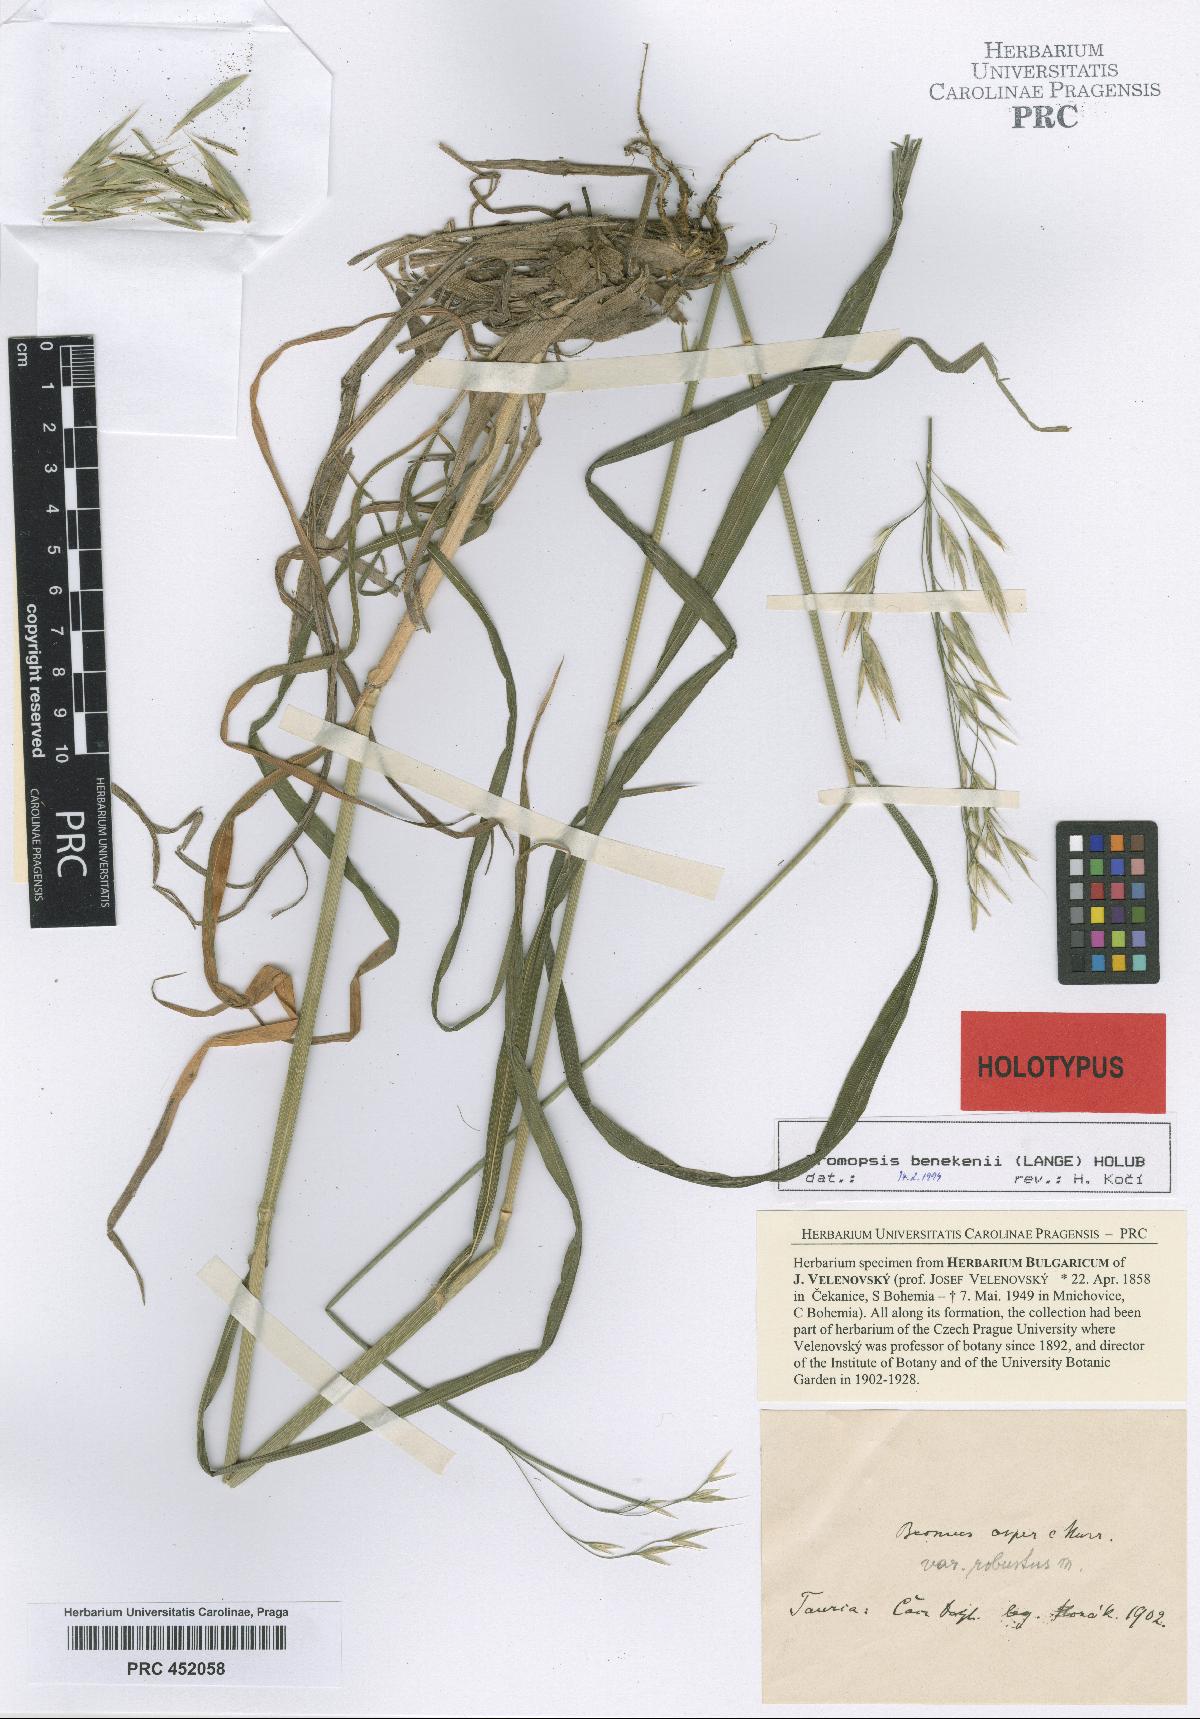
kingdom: Plantae
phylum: Tracheophyta
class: Liliopsida
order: Poales
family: Poaceae
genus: Bromus
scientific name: Bromus
